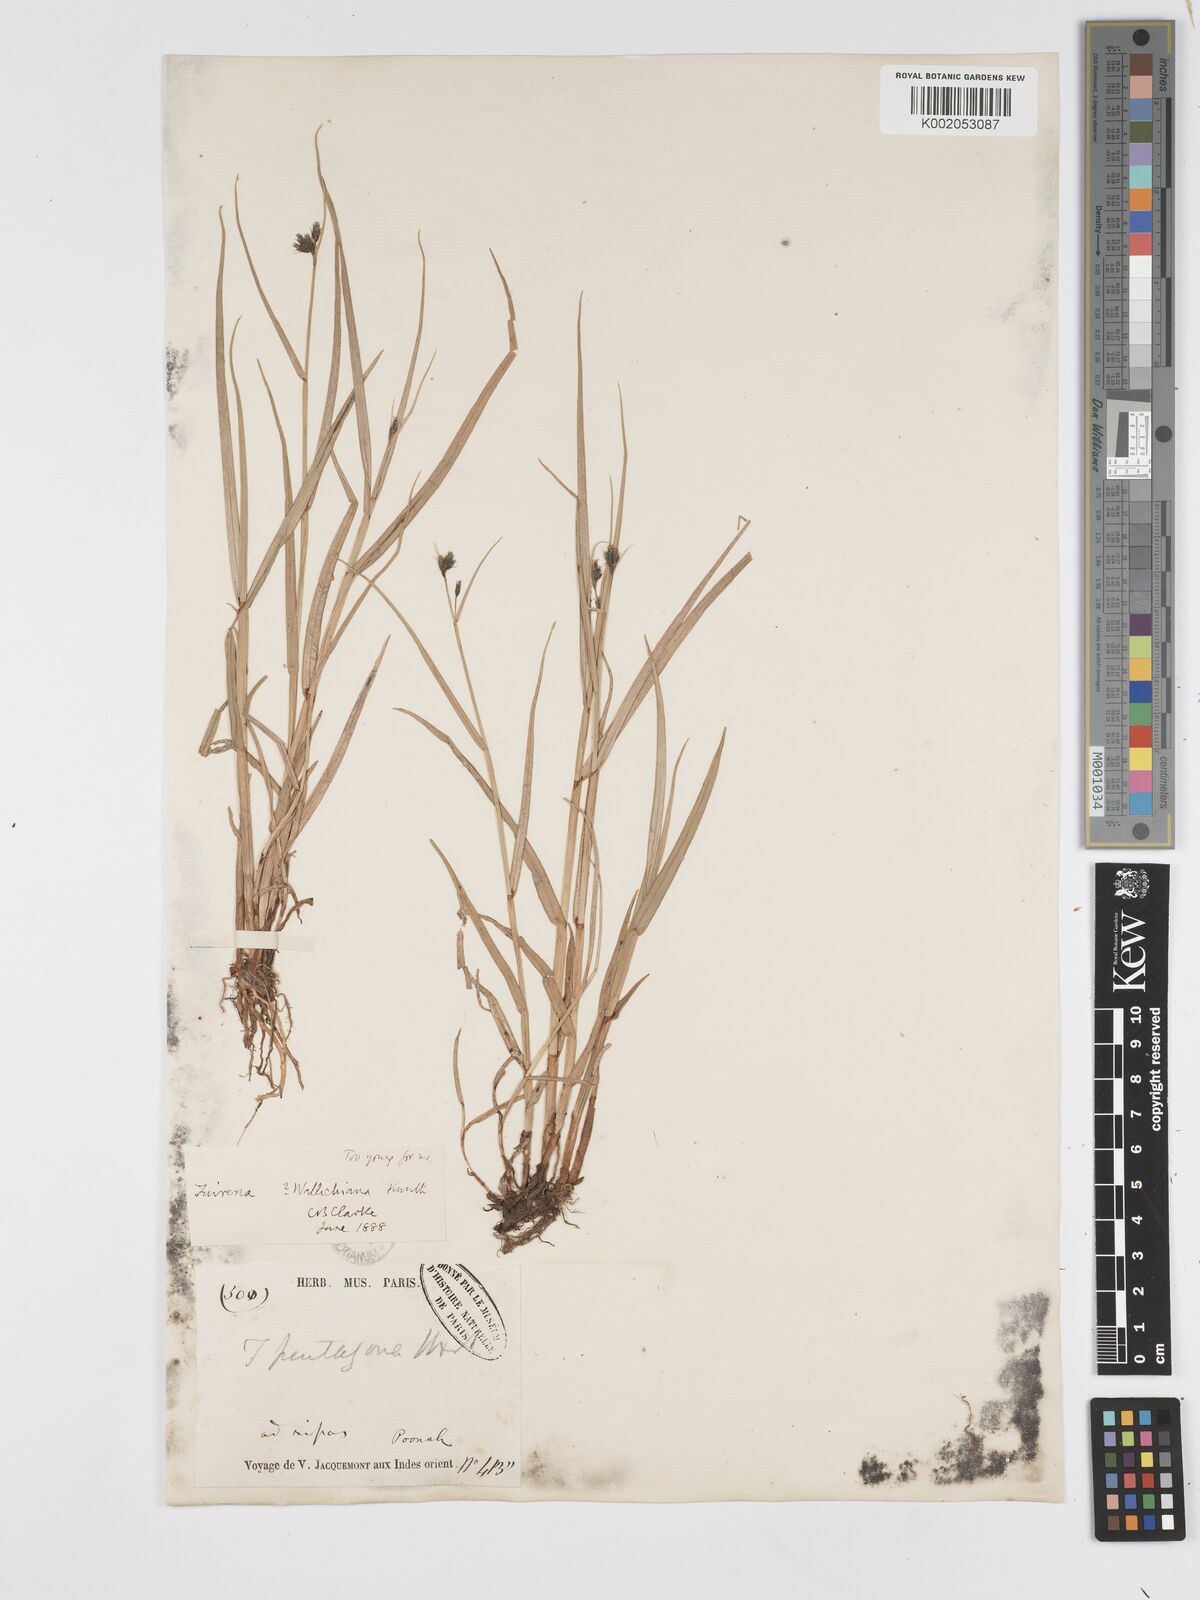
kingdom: Plantae
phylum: Tracheophyta
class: Liliopsida
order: Poales
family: Cyperaceae
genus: Fuirena
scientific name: Fuirena cuspidata
